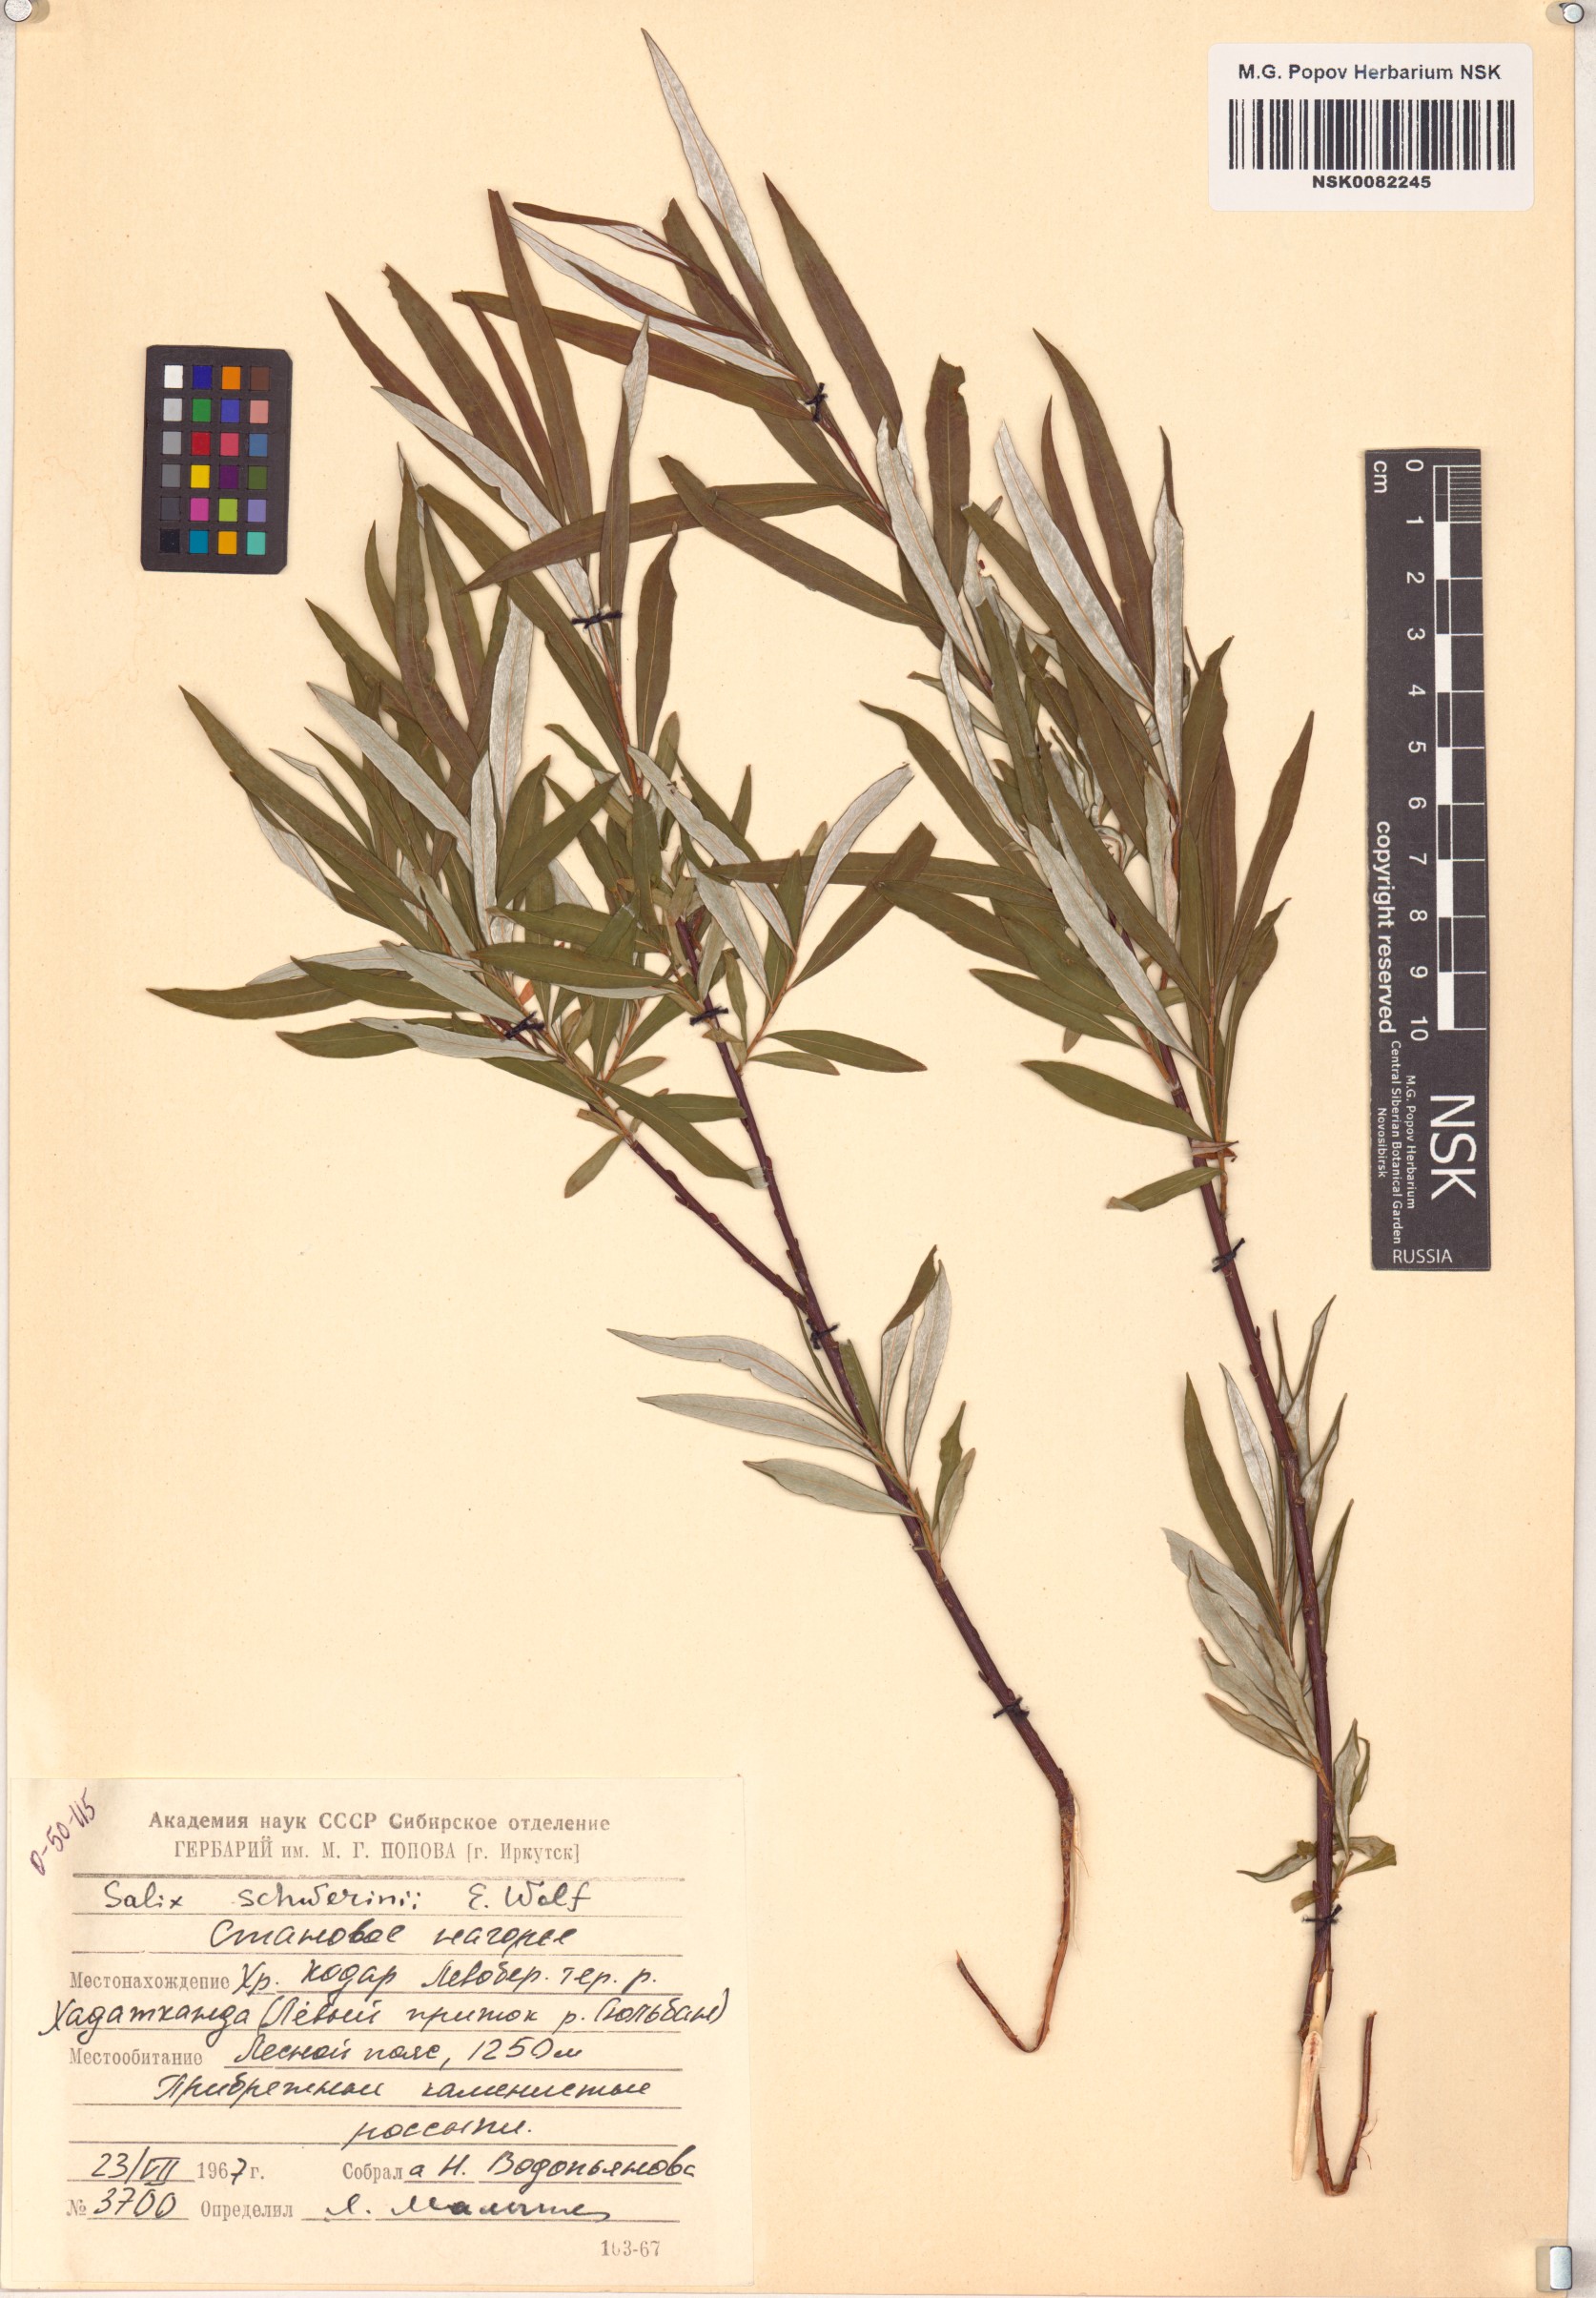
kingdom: Plantae
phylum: Tracheophyta
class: Magnoliopsida
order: Malpighiales
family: Salicaceae
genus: Salix
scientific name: Salix schwerinii
